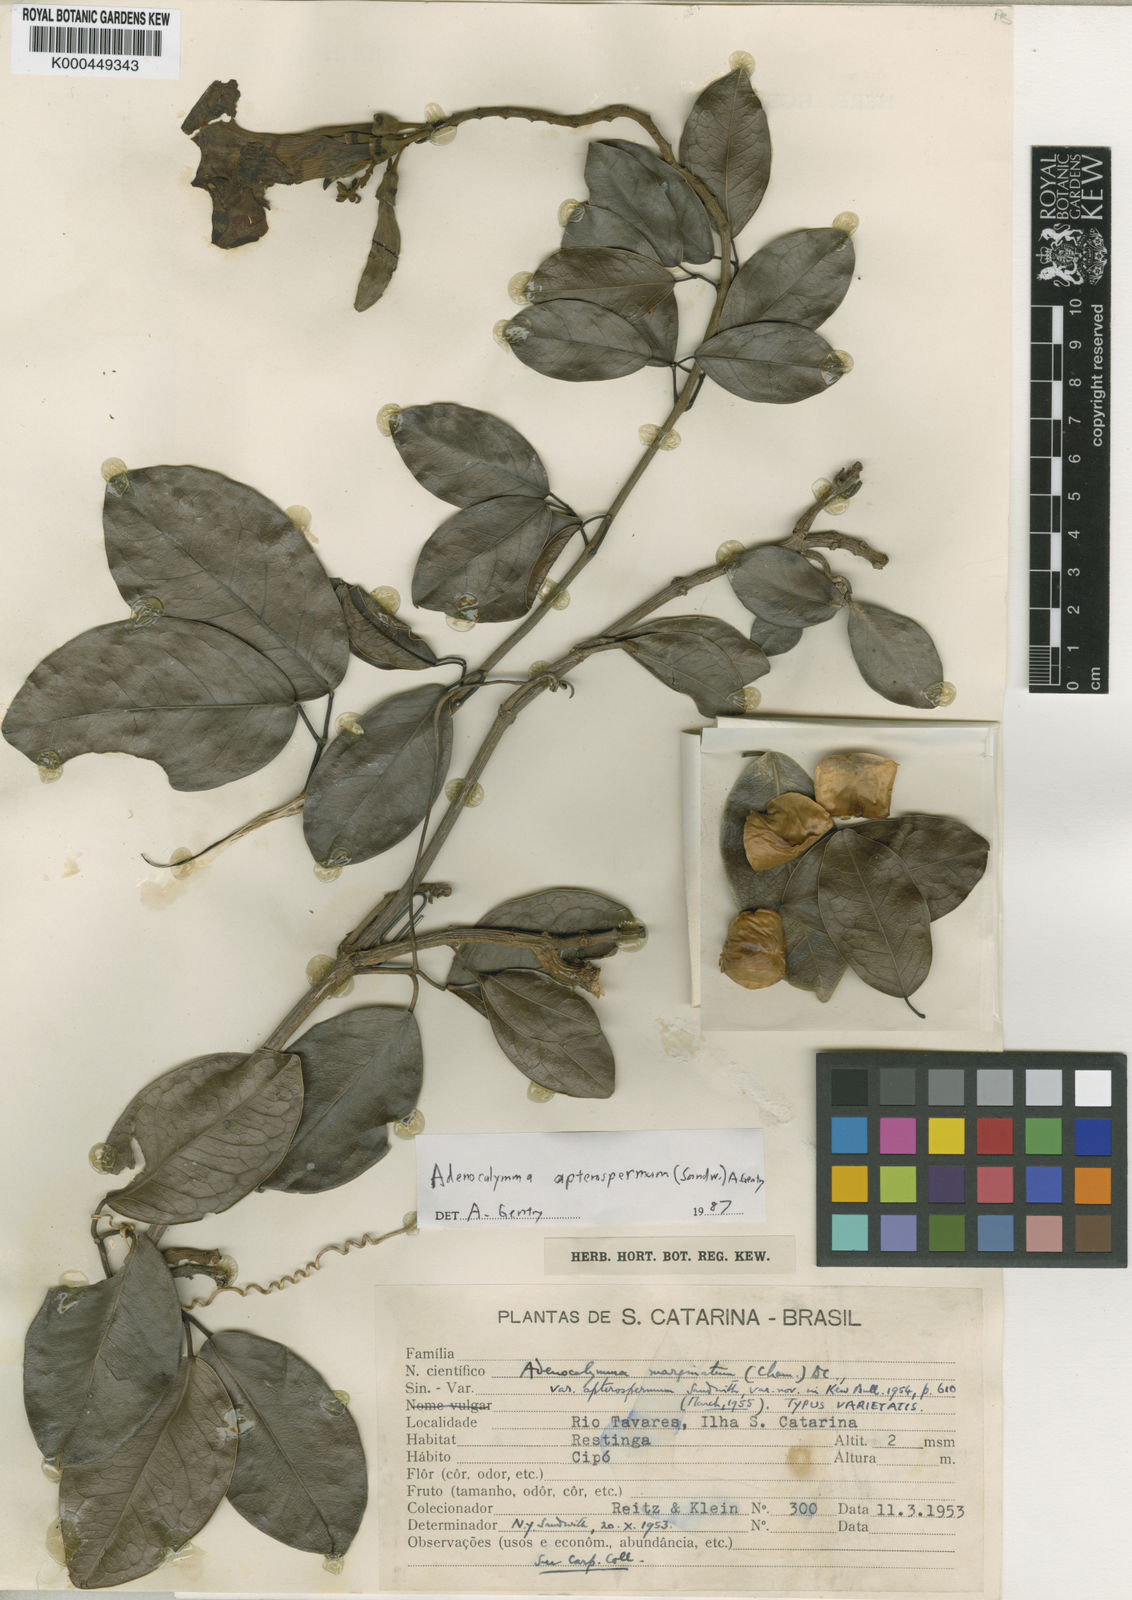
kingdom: Plantae
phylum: Tracheophyta
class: Magnoliopsida
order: Lamiales
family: Bignoniaceae
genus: Adenocalymma
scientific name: Adenocalymma
